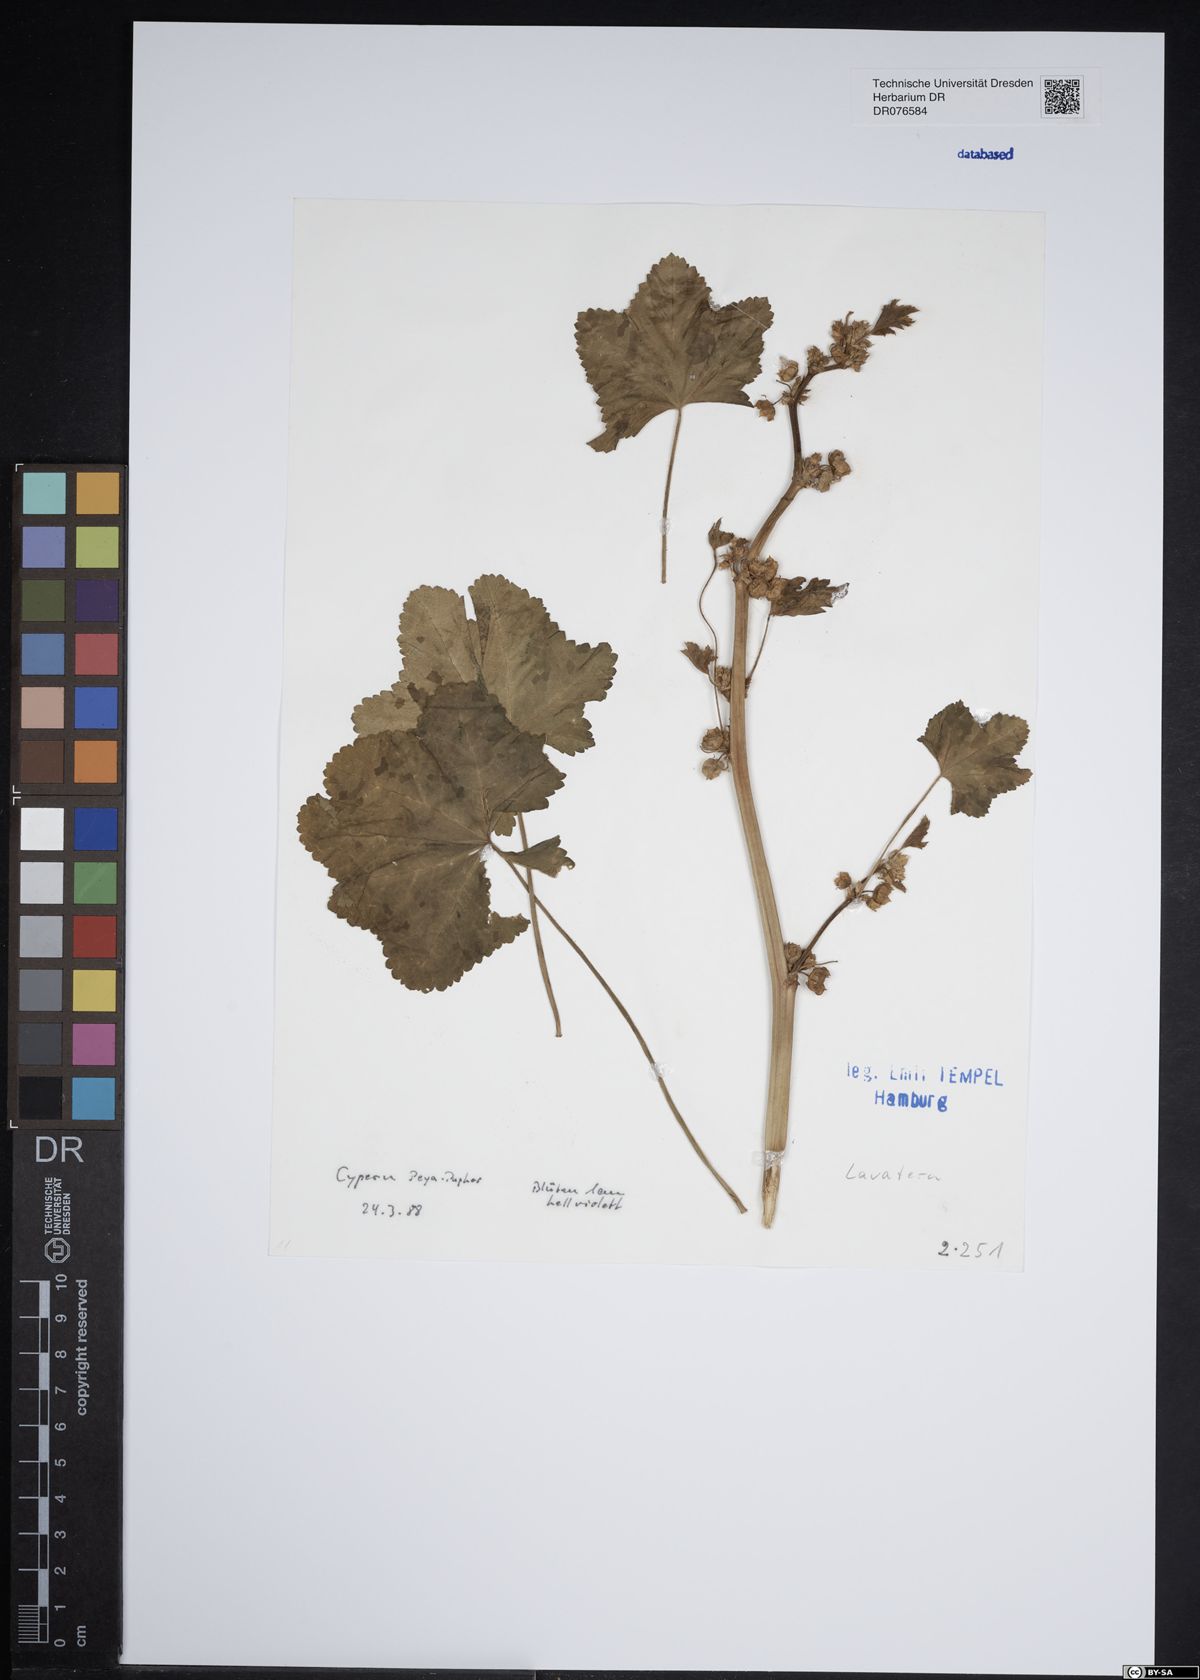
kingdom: Plantae
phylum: Tracheophyta
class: Magnoliopsida
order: Malvales
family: Malvaceae
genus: Malva
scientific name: Malva
